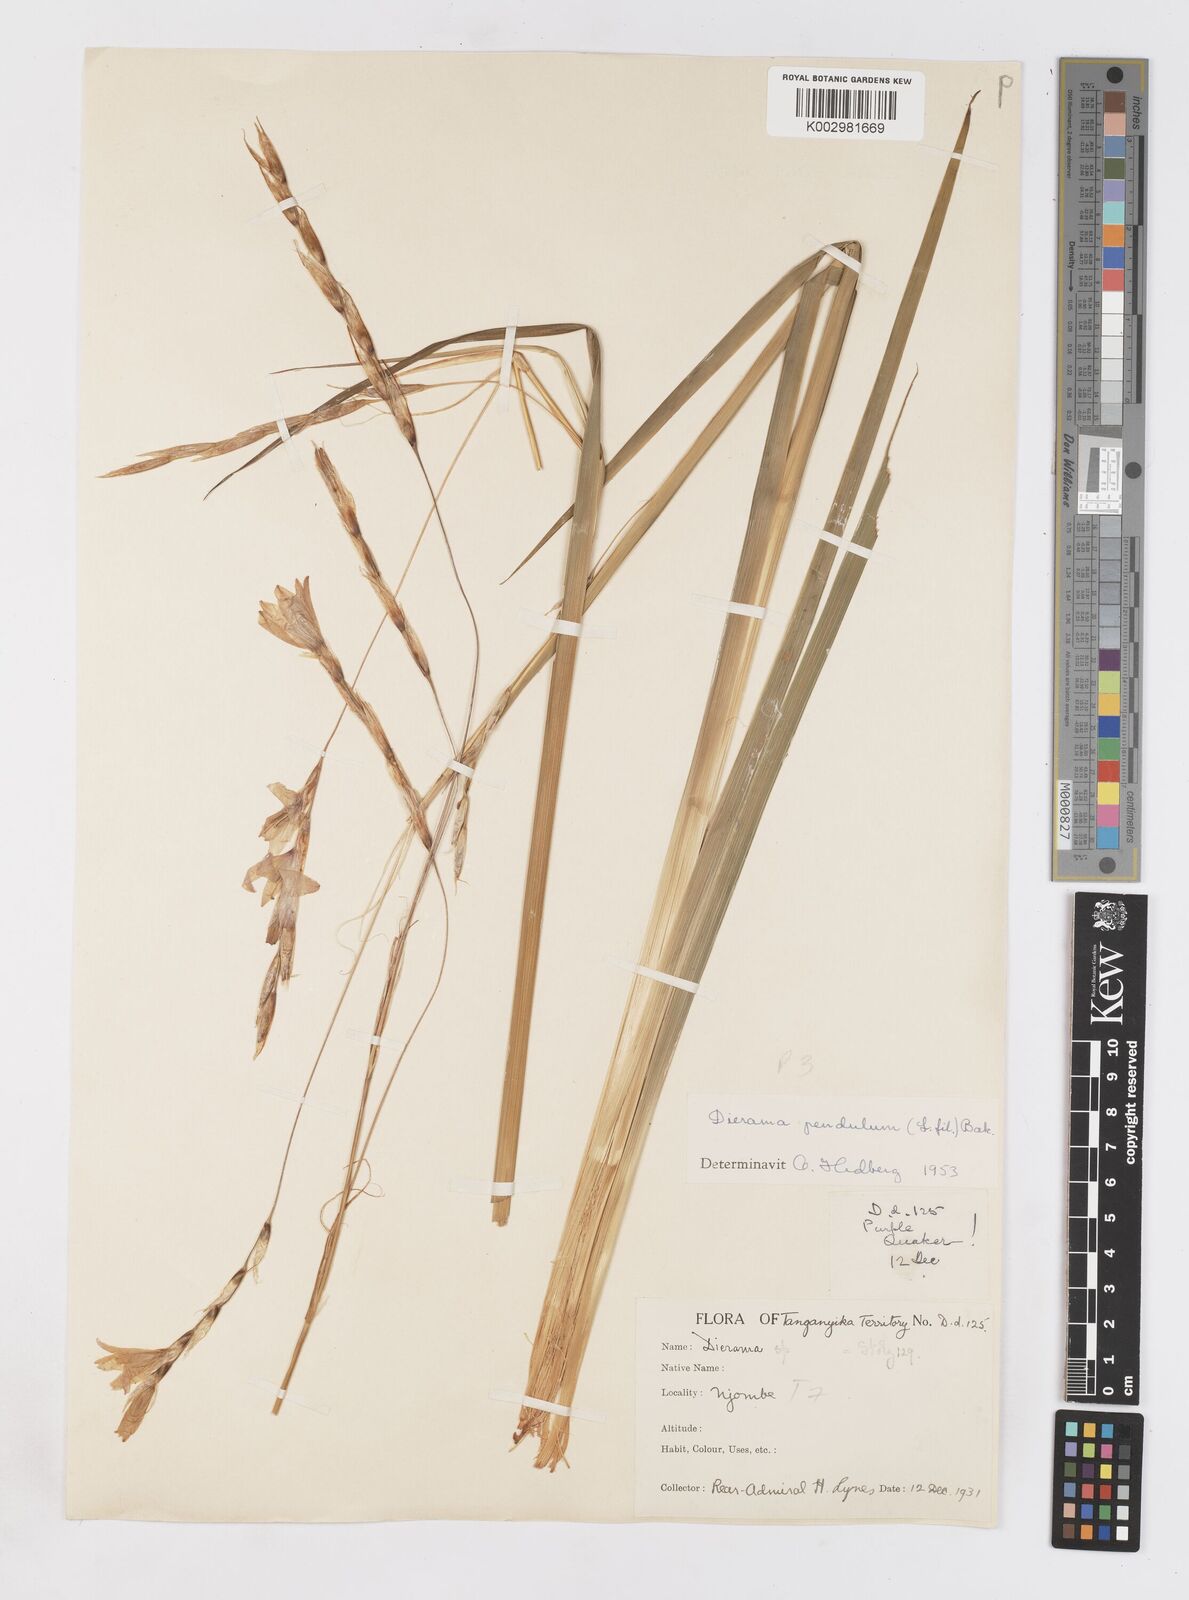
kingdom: Plantae
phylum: Tracheophyta
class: Liliopsida
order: Asparagales
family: Iridaceae
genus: Dierama
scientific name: Dierama longistylum
